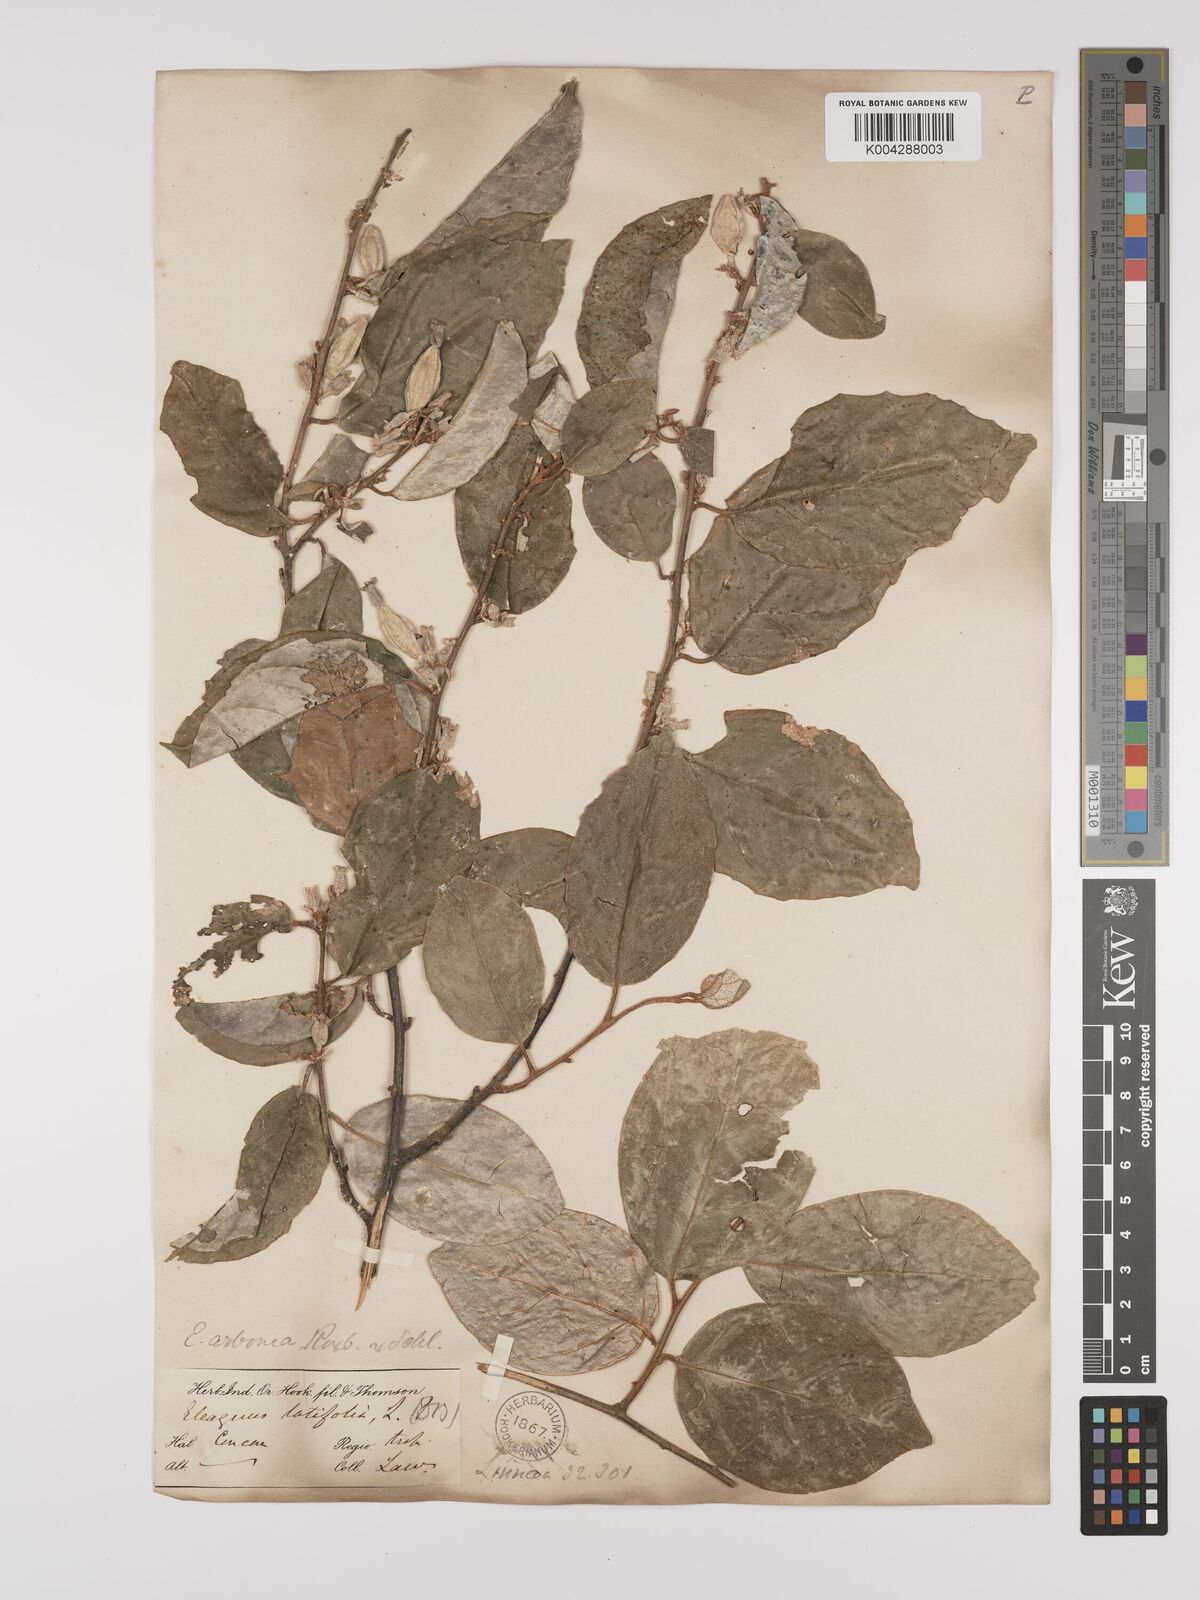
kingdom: Plantae
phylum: Tracheophyta
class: Magnoliopsida
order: Rosales
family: Elaeagnaceae
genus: Elaeagnus
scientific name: Elaeagnus latifolia
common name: Oleaster
